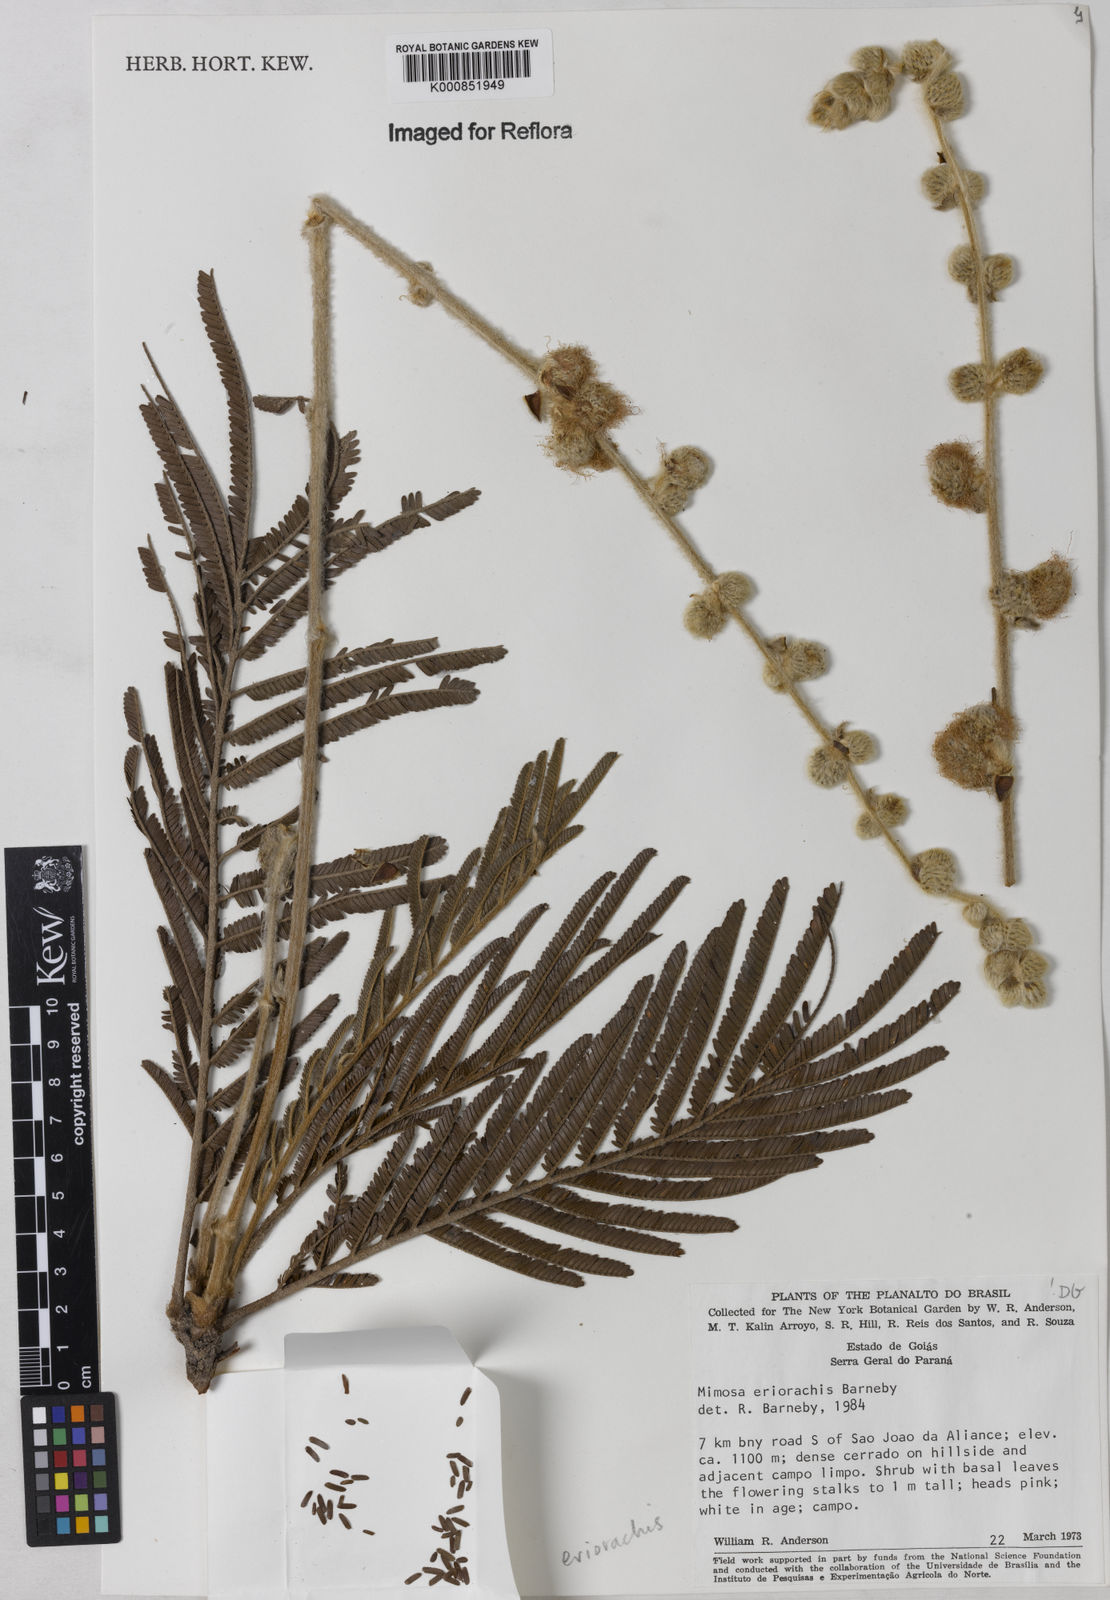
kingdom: Plantae
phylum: Tracheophyta
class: Magnoliopsida
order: Fabales
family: Fabaceae
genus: Mimosa
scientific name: Mimosa eriorrhachis
